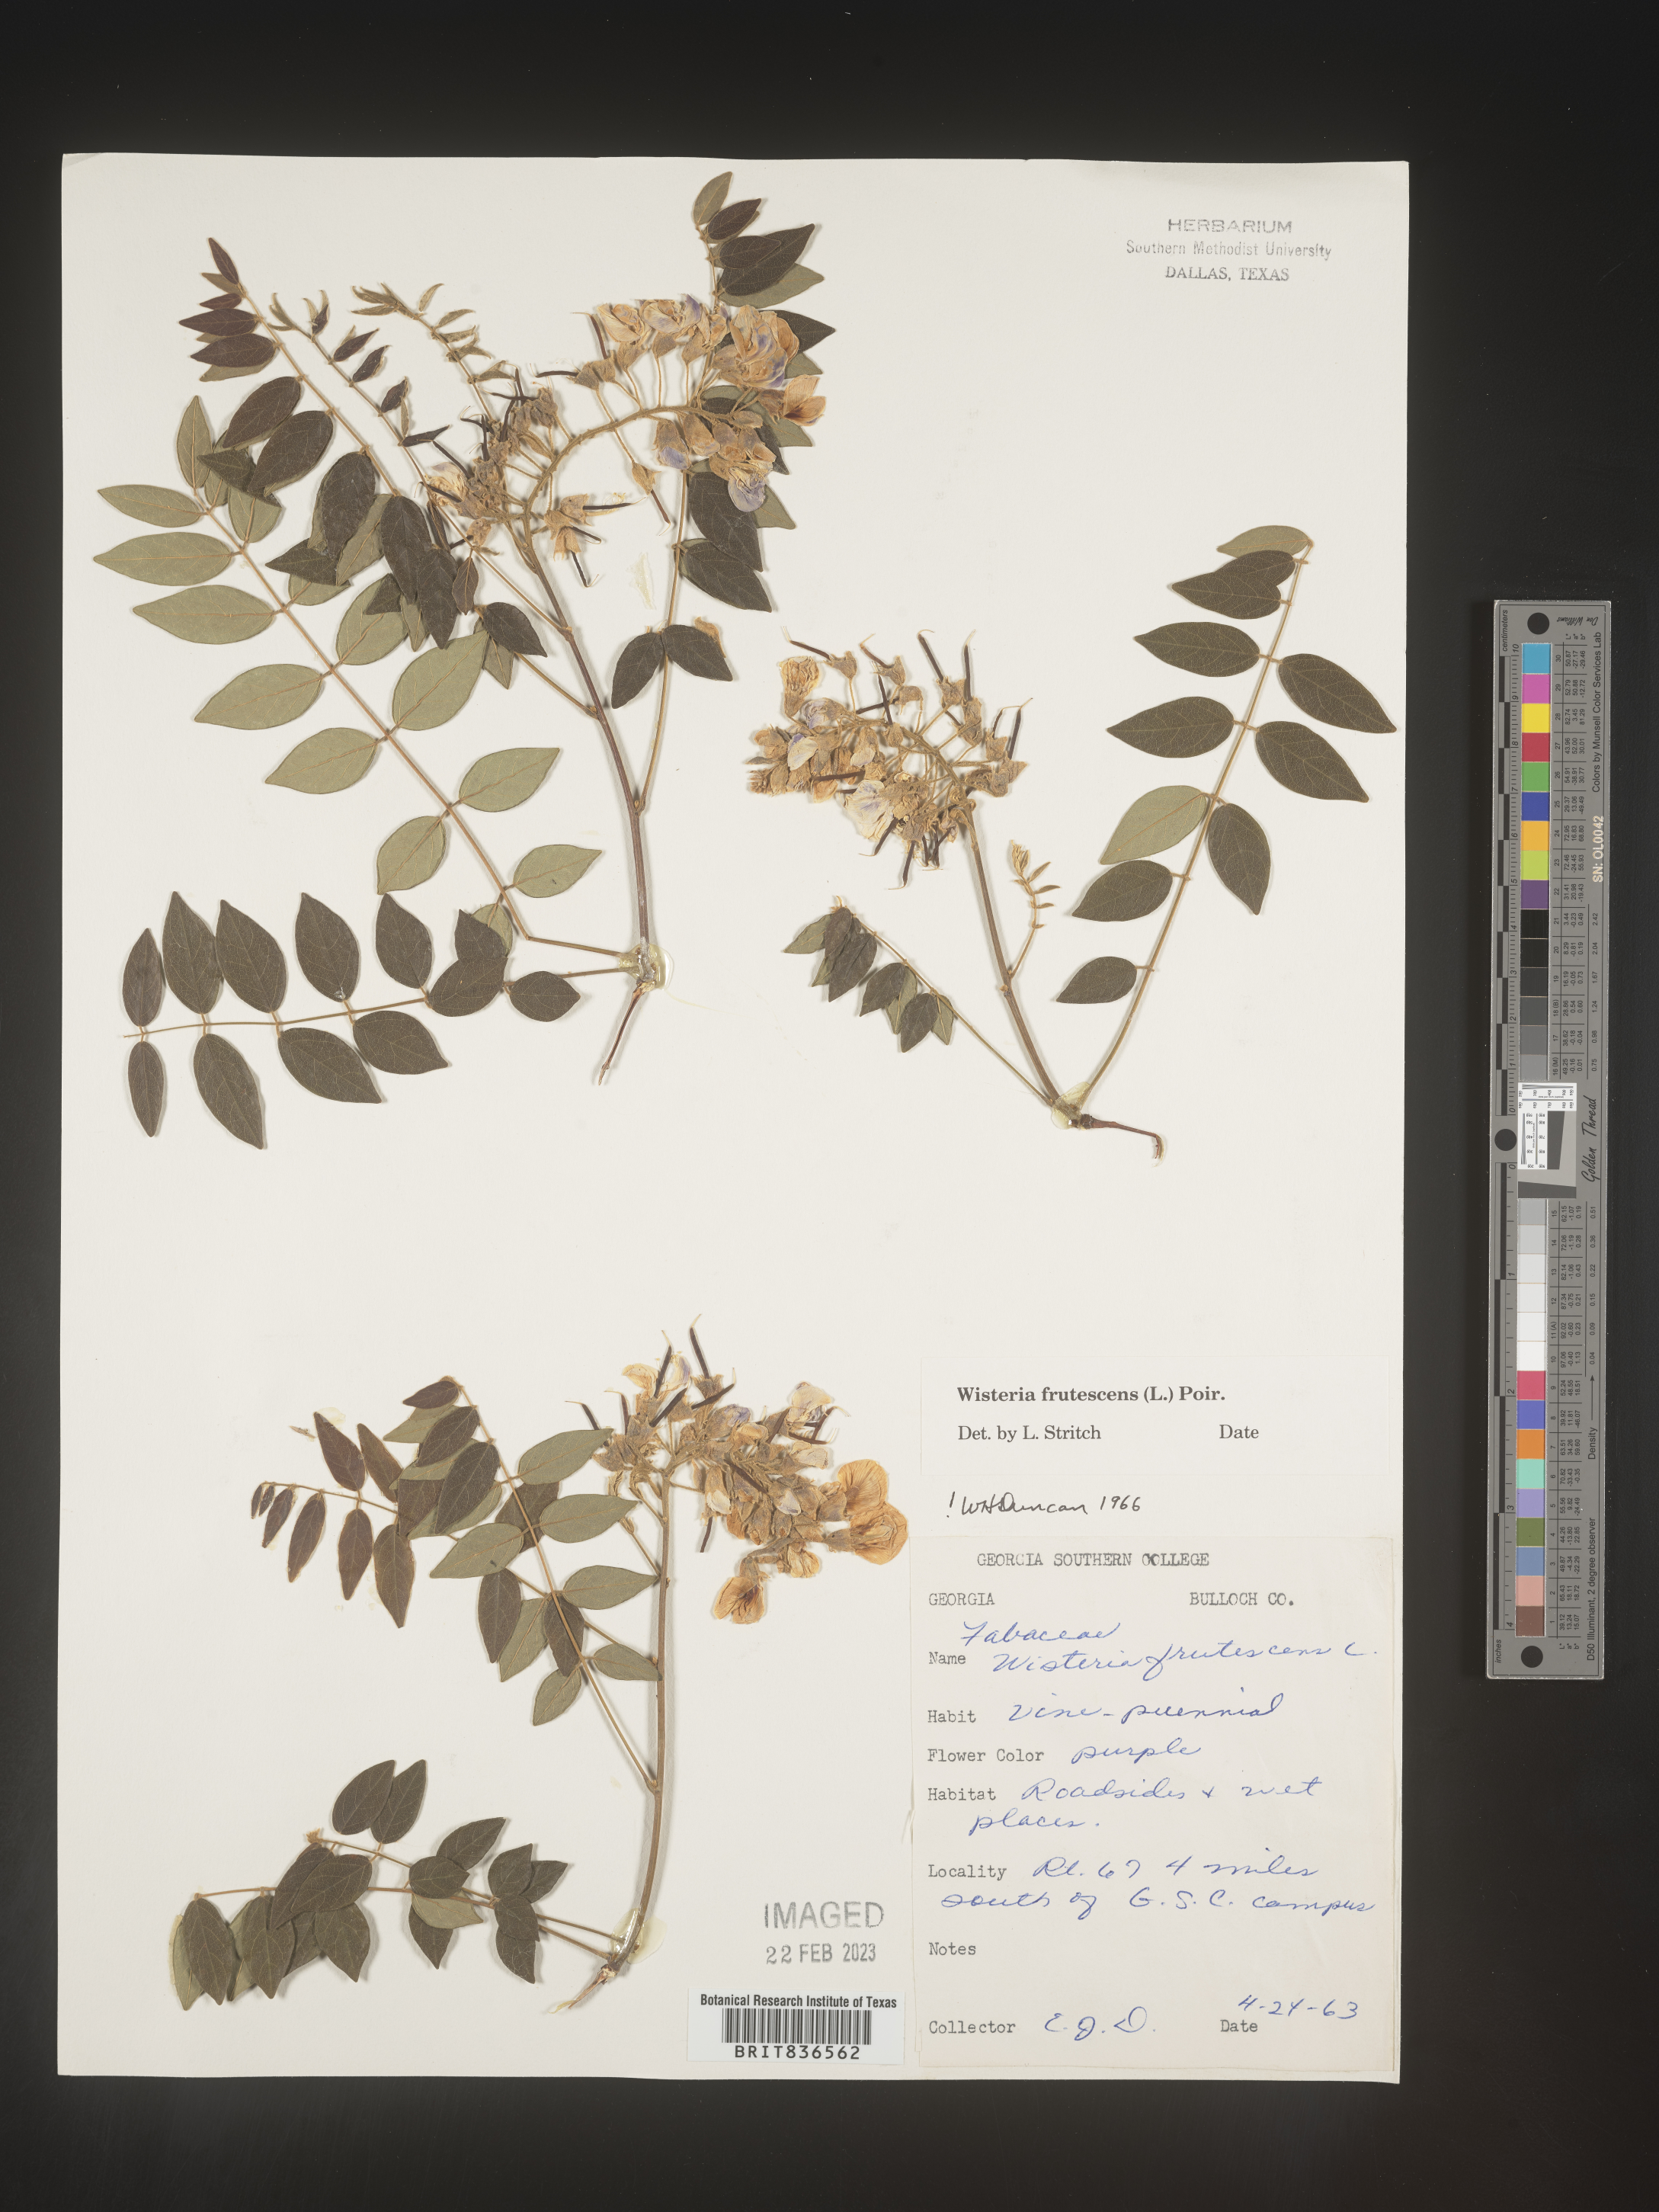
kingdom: Plantae
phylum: Tracheophyta
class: Magnoliopsida
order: Fabales
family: Fabaceae
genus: Wisteria
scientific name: Wisteria
